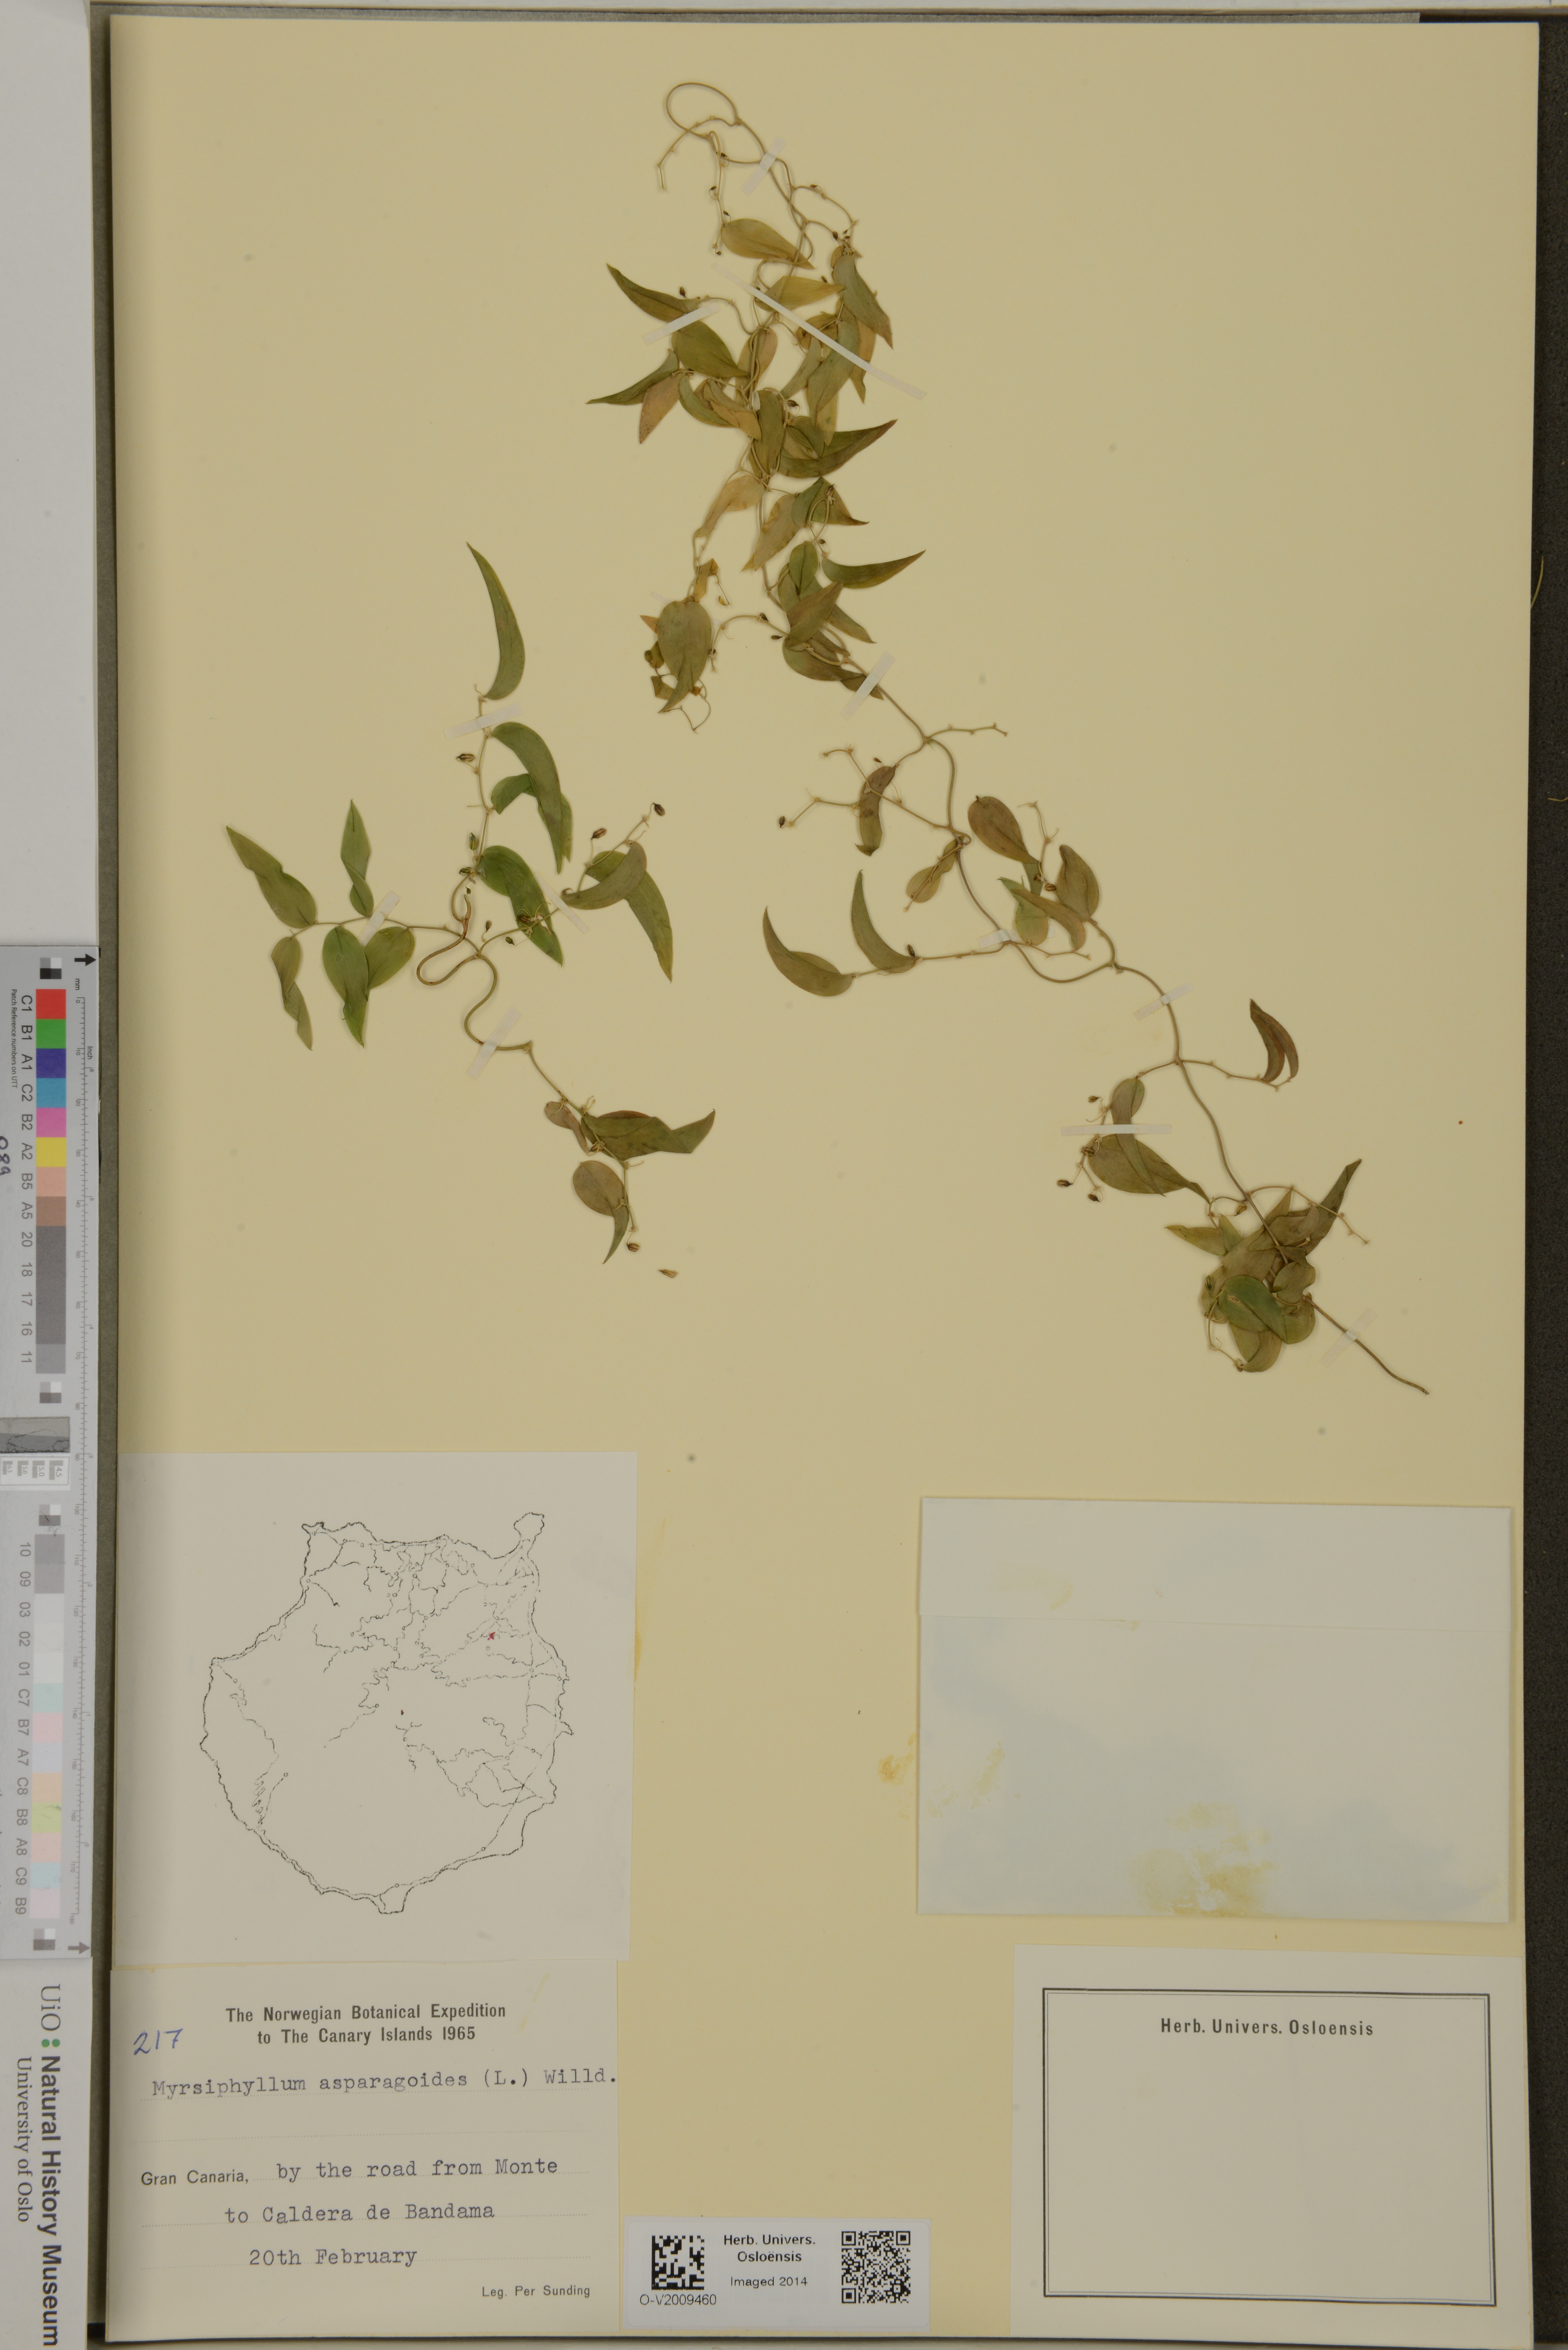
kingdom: Plantae
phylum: Tracheophyta
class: Liliopsida
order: Asparagales
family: Asparagaceae
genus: Asparagus
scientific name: Asparagus asparagoides
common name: African asparagus fern
